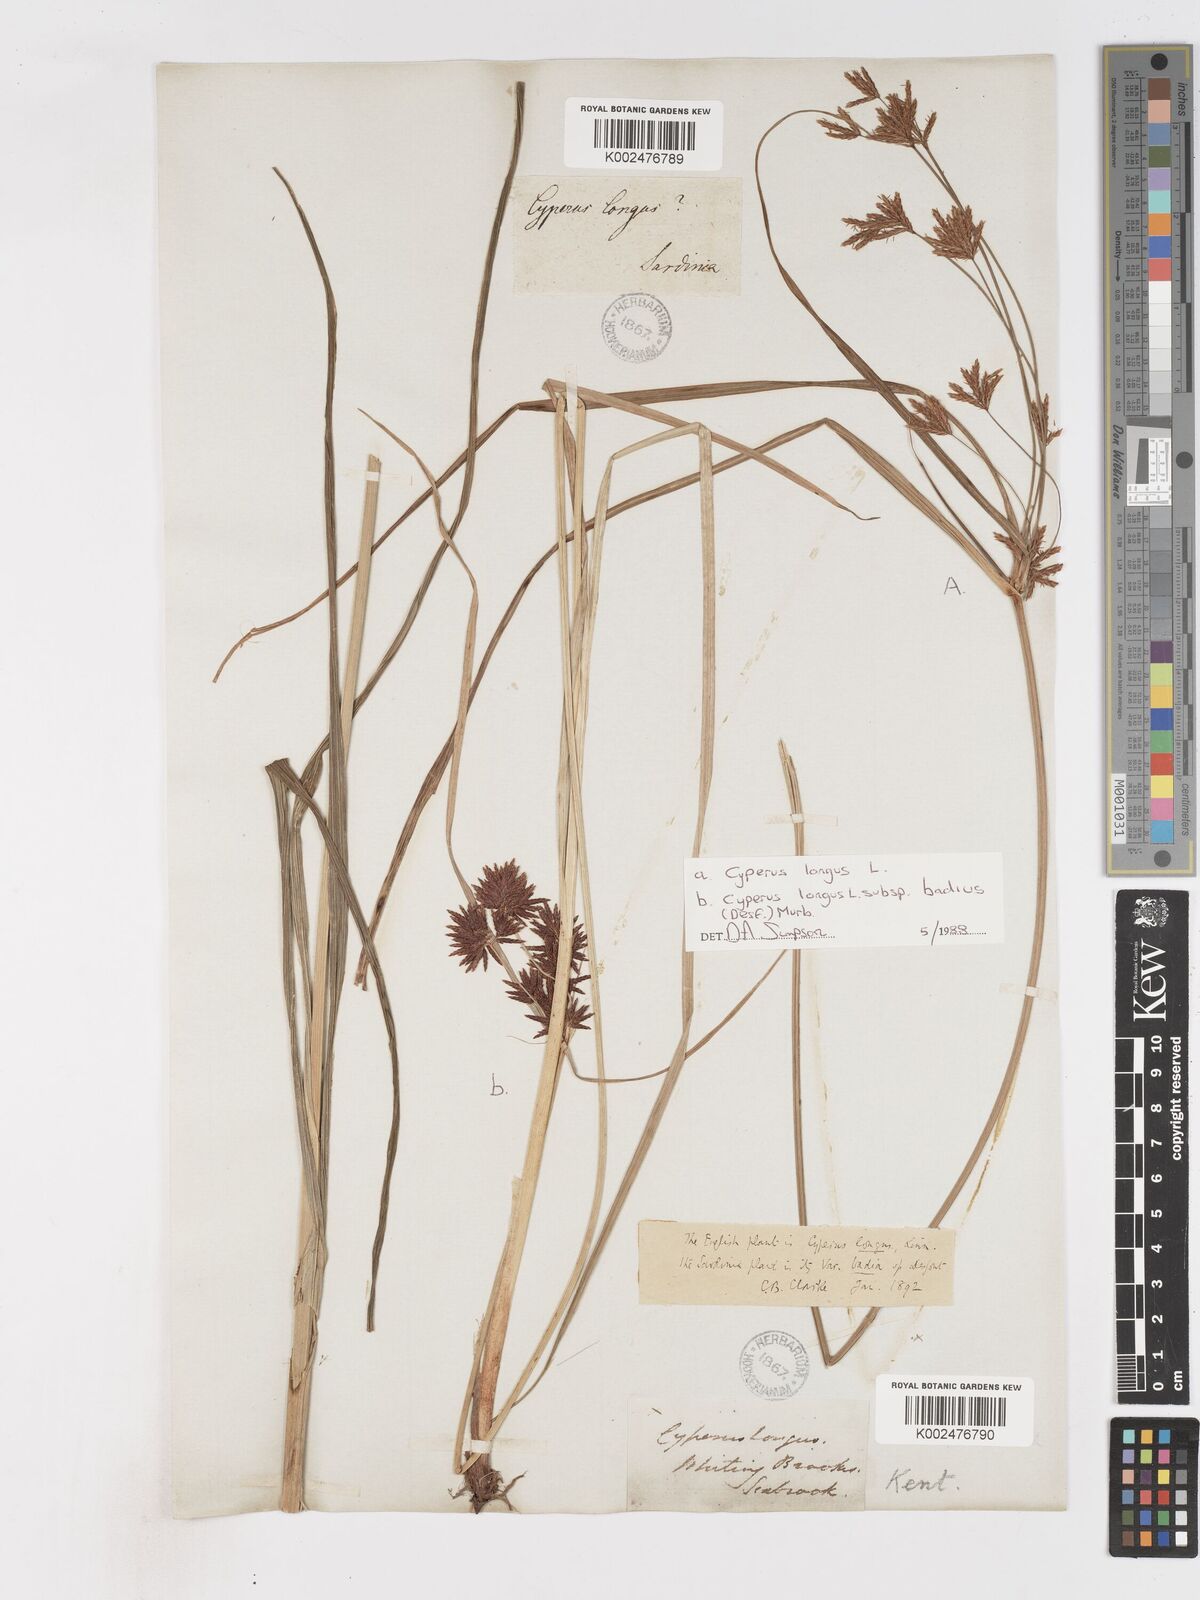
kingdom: Plantae
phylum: Tracheophyta
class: Liliopsida
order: Poales
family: Cyperaceae
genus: Cyperus
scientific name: Cyperus longus
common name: Galingale
